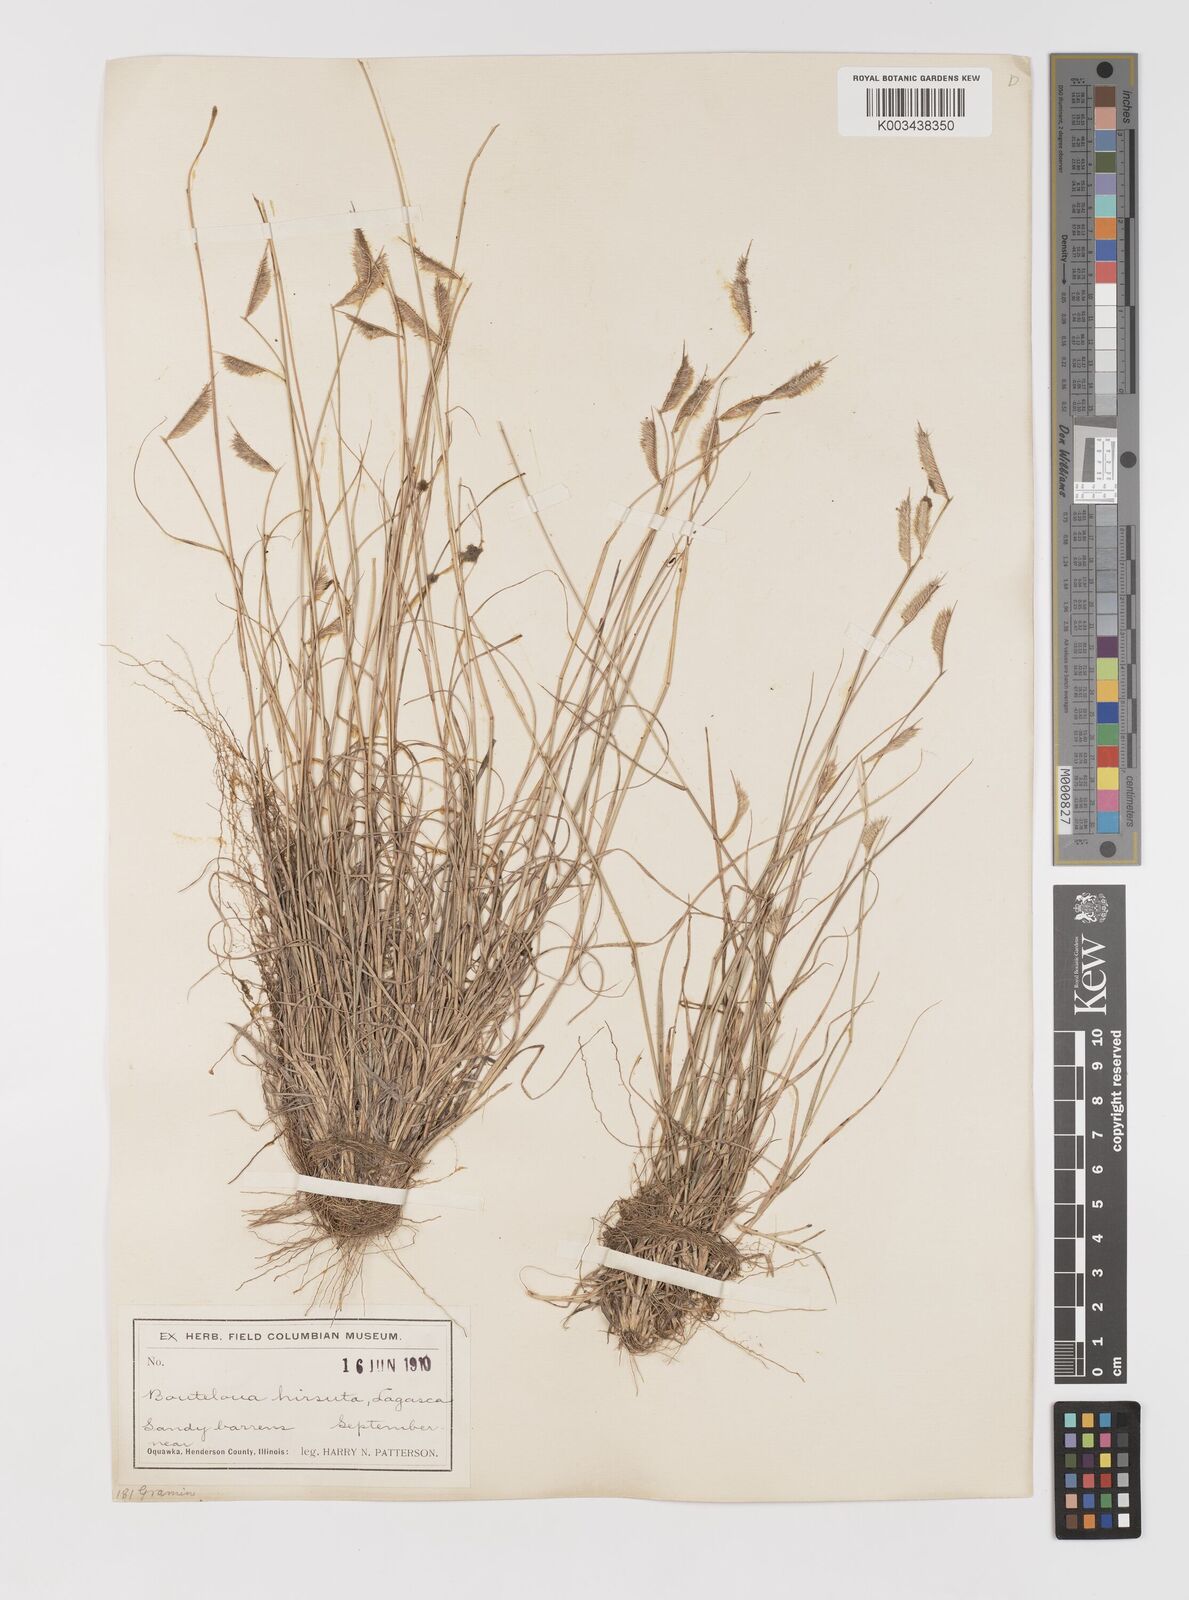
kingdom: Plantae
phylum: Tracheophyta
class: Liliopsida
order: Poales
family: Poaceae
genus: Bouteloua
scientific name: Bouteloua hirsuta
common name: Hairy grama
